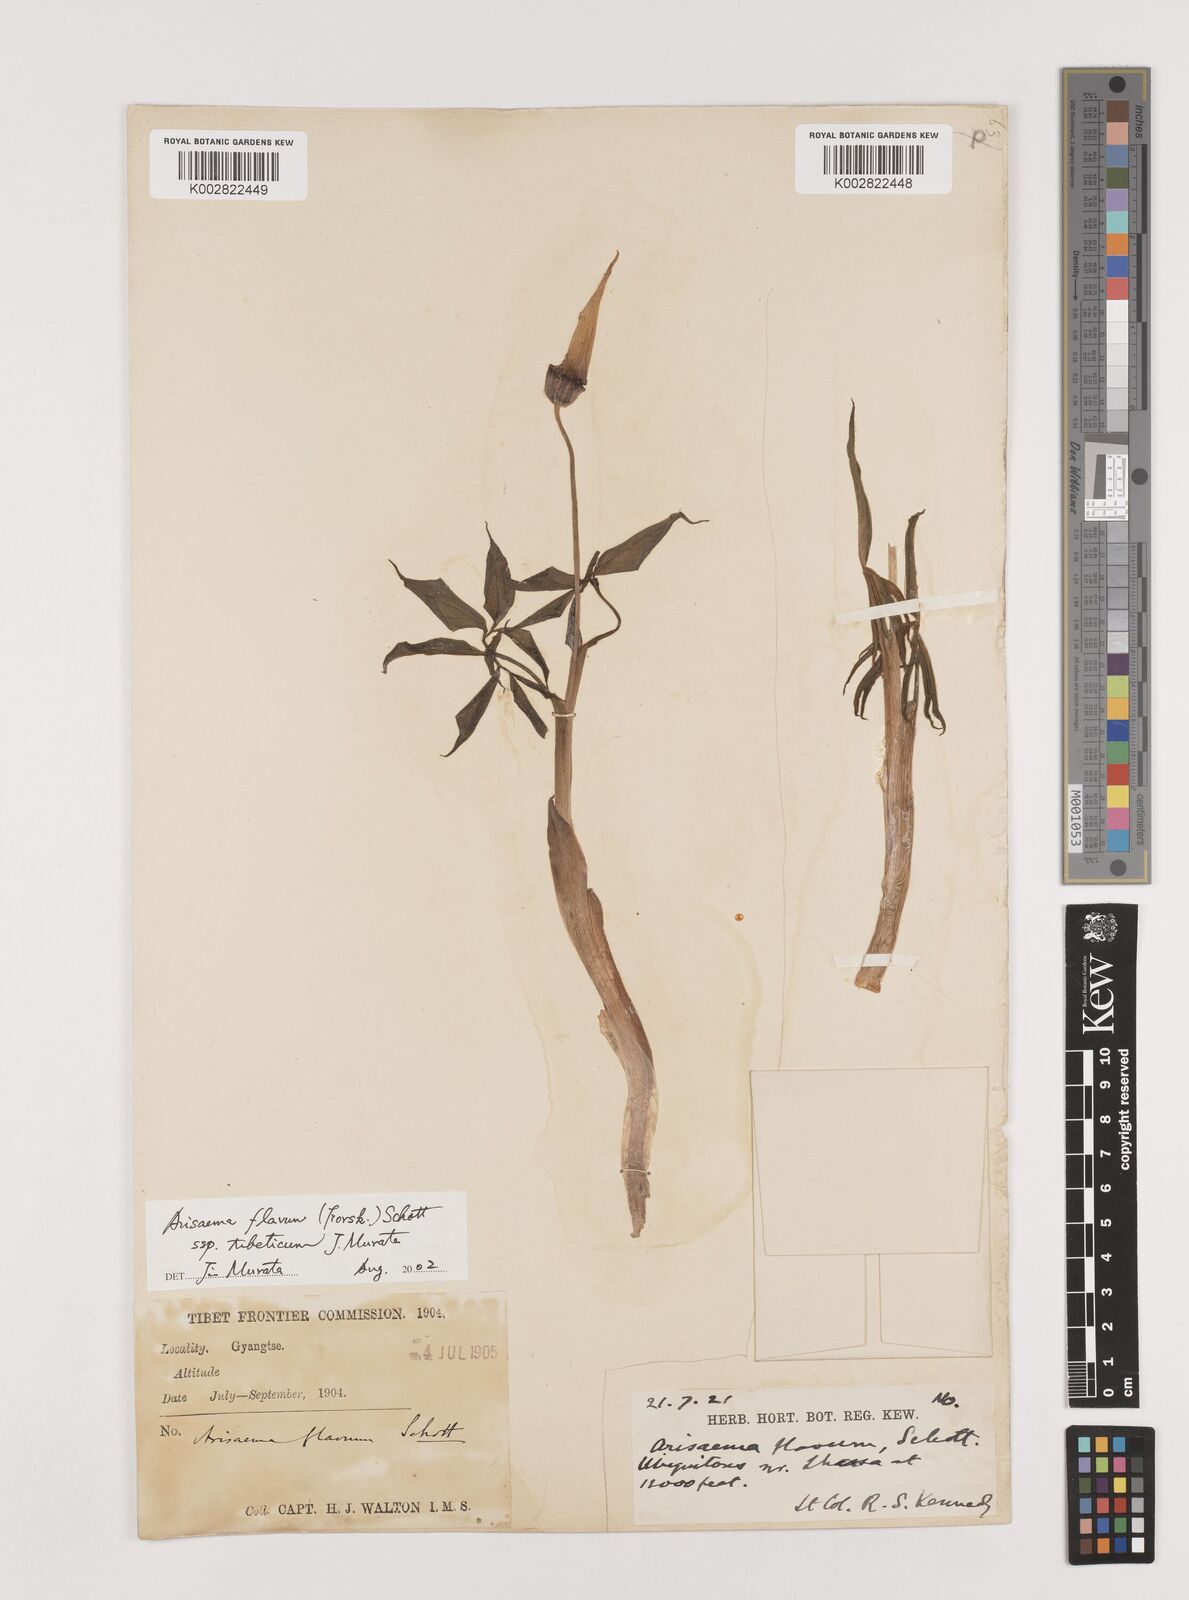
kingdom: Plantae
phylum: Tracheophyta
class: Liliopsida
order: Alismatales
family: Araceae
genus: Arisaema
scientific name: Arisaema flavum
